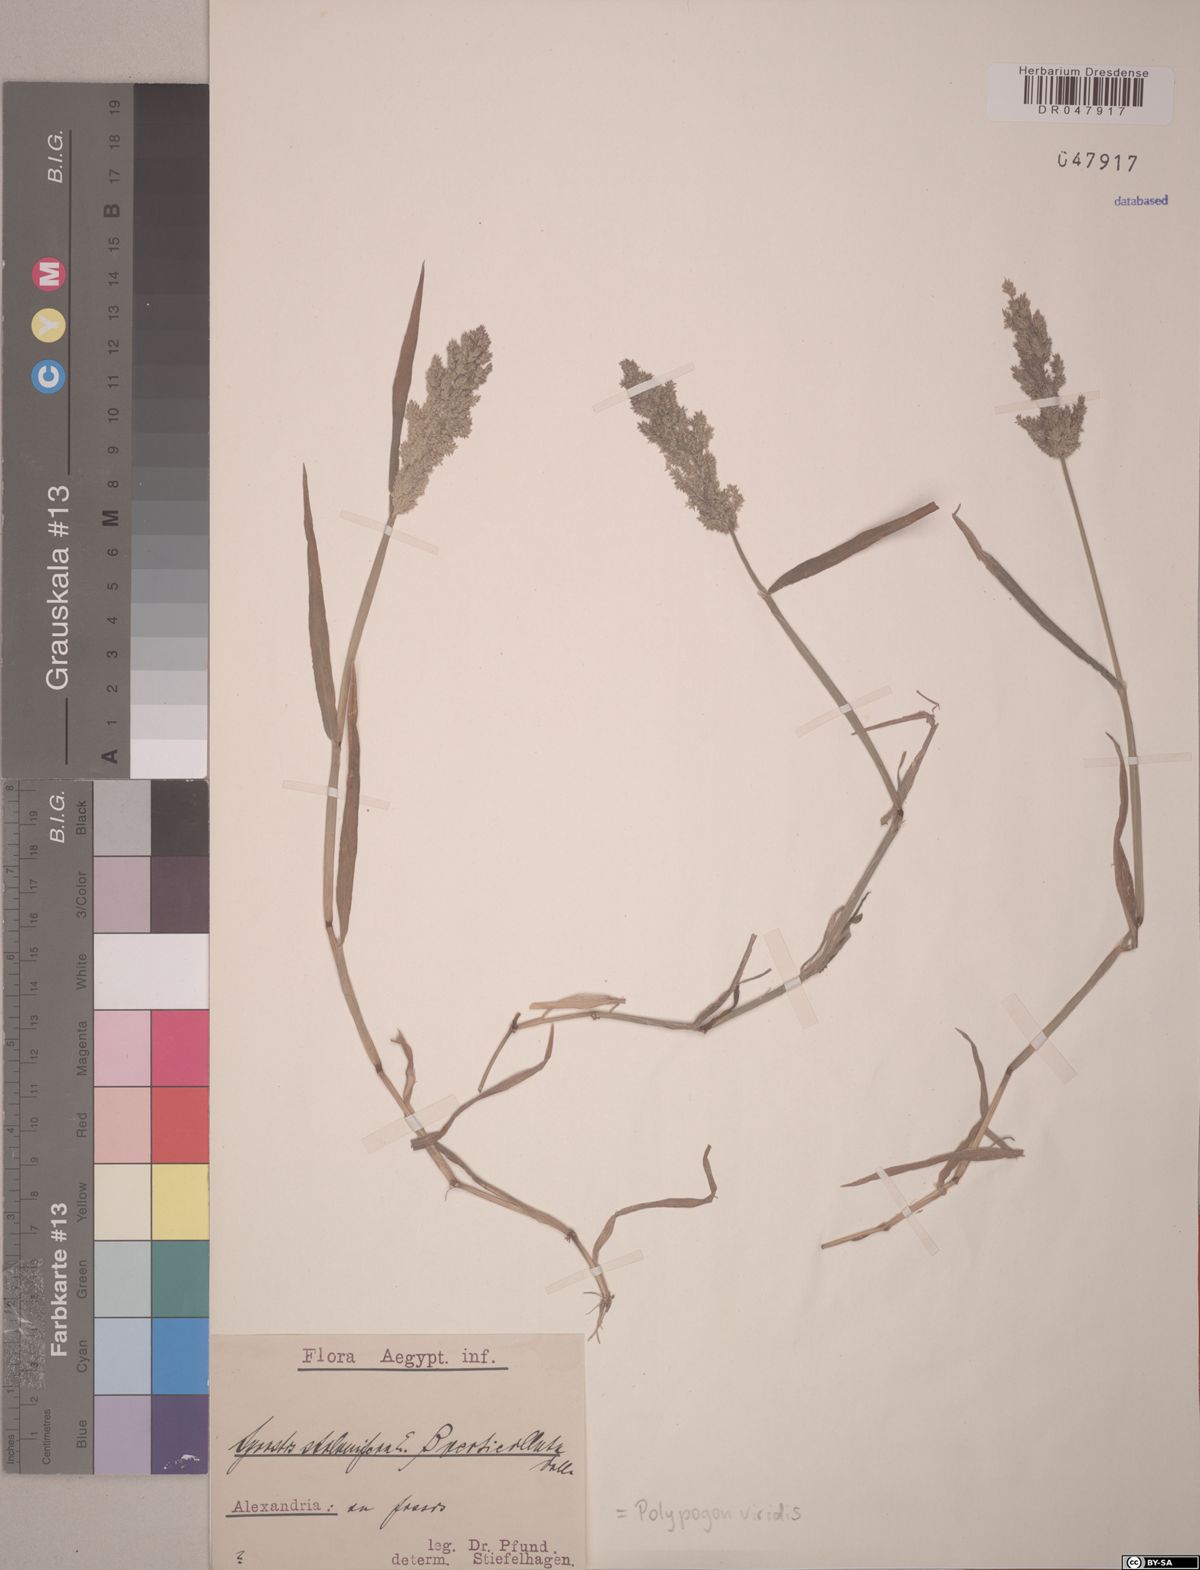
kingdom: Plantae
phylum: Tracheophyta
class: Liliopsida
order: Poales
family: Poaceae
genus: Polypogon
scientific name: Polypogon viridis
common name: Water bent
